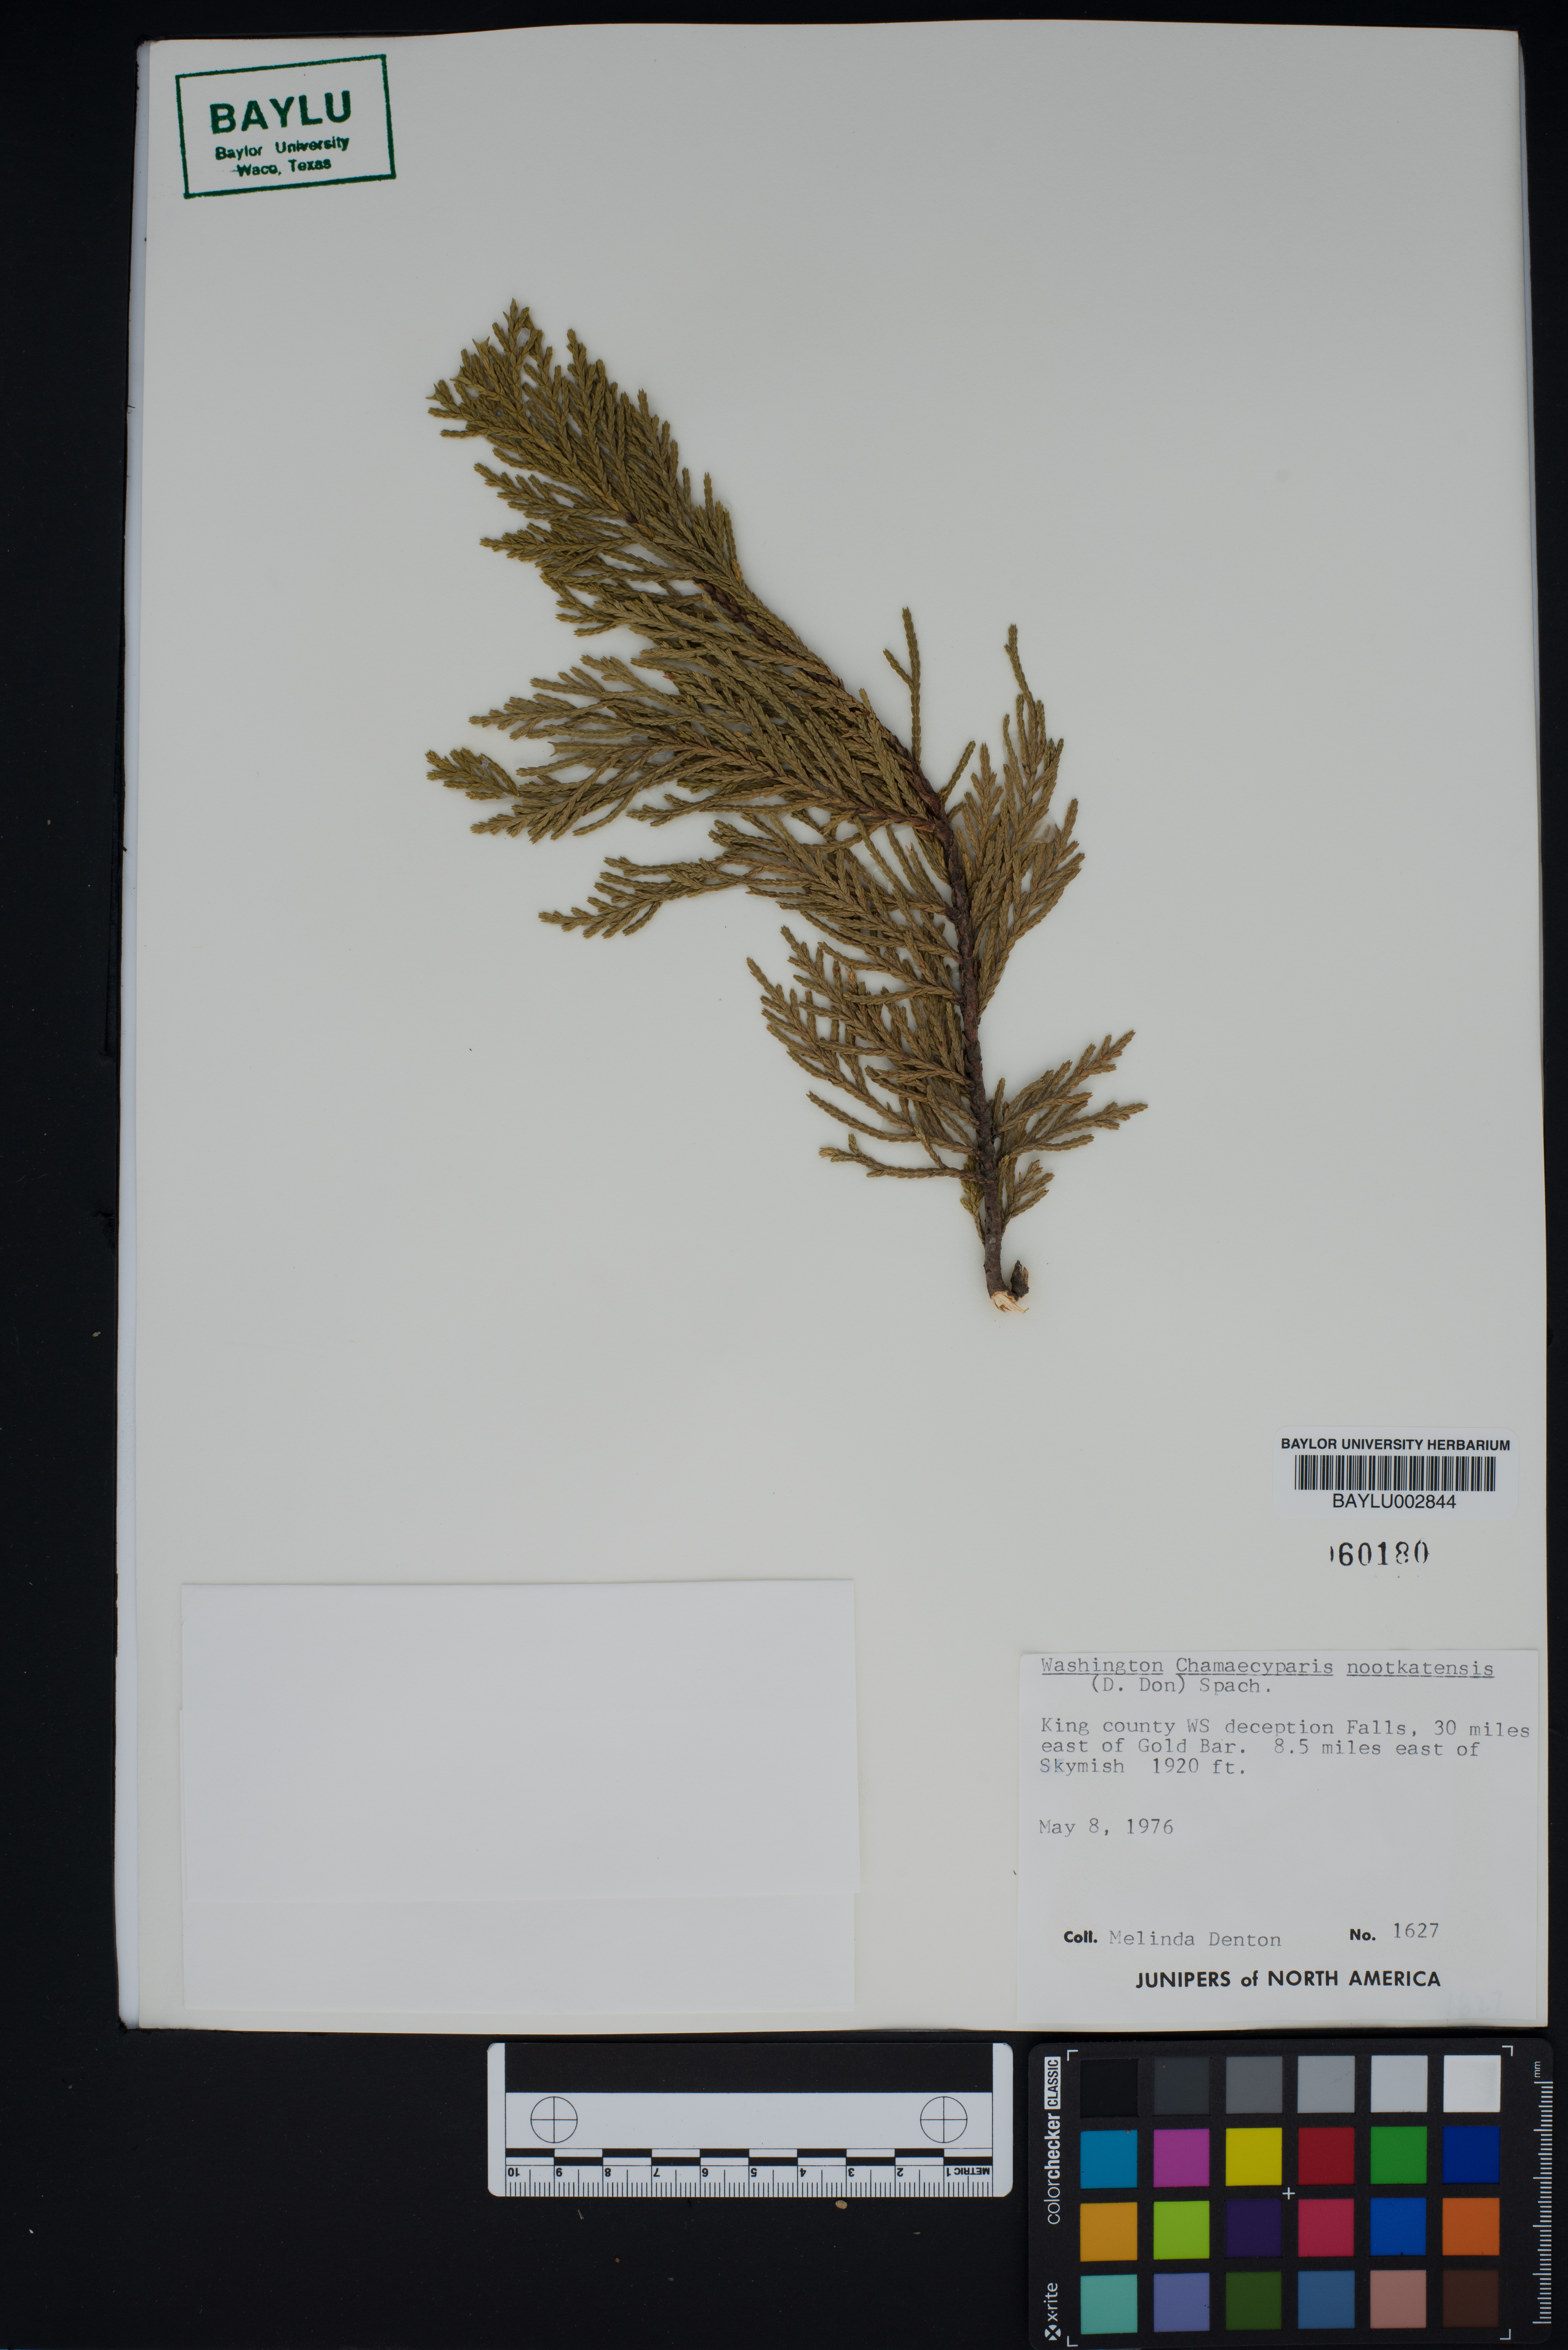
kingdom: Plantae
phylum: Tracheophyta
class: Pinopsida
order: Pinales
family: Cupressaceae
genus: Xanthocyparis
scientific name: Xanthocyparis nootkatensis
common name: Nootka cypress
